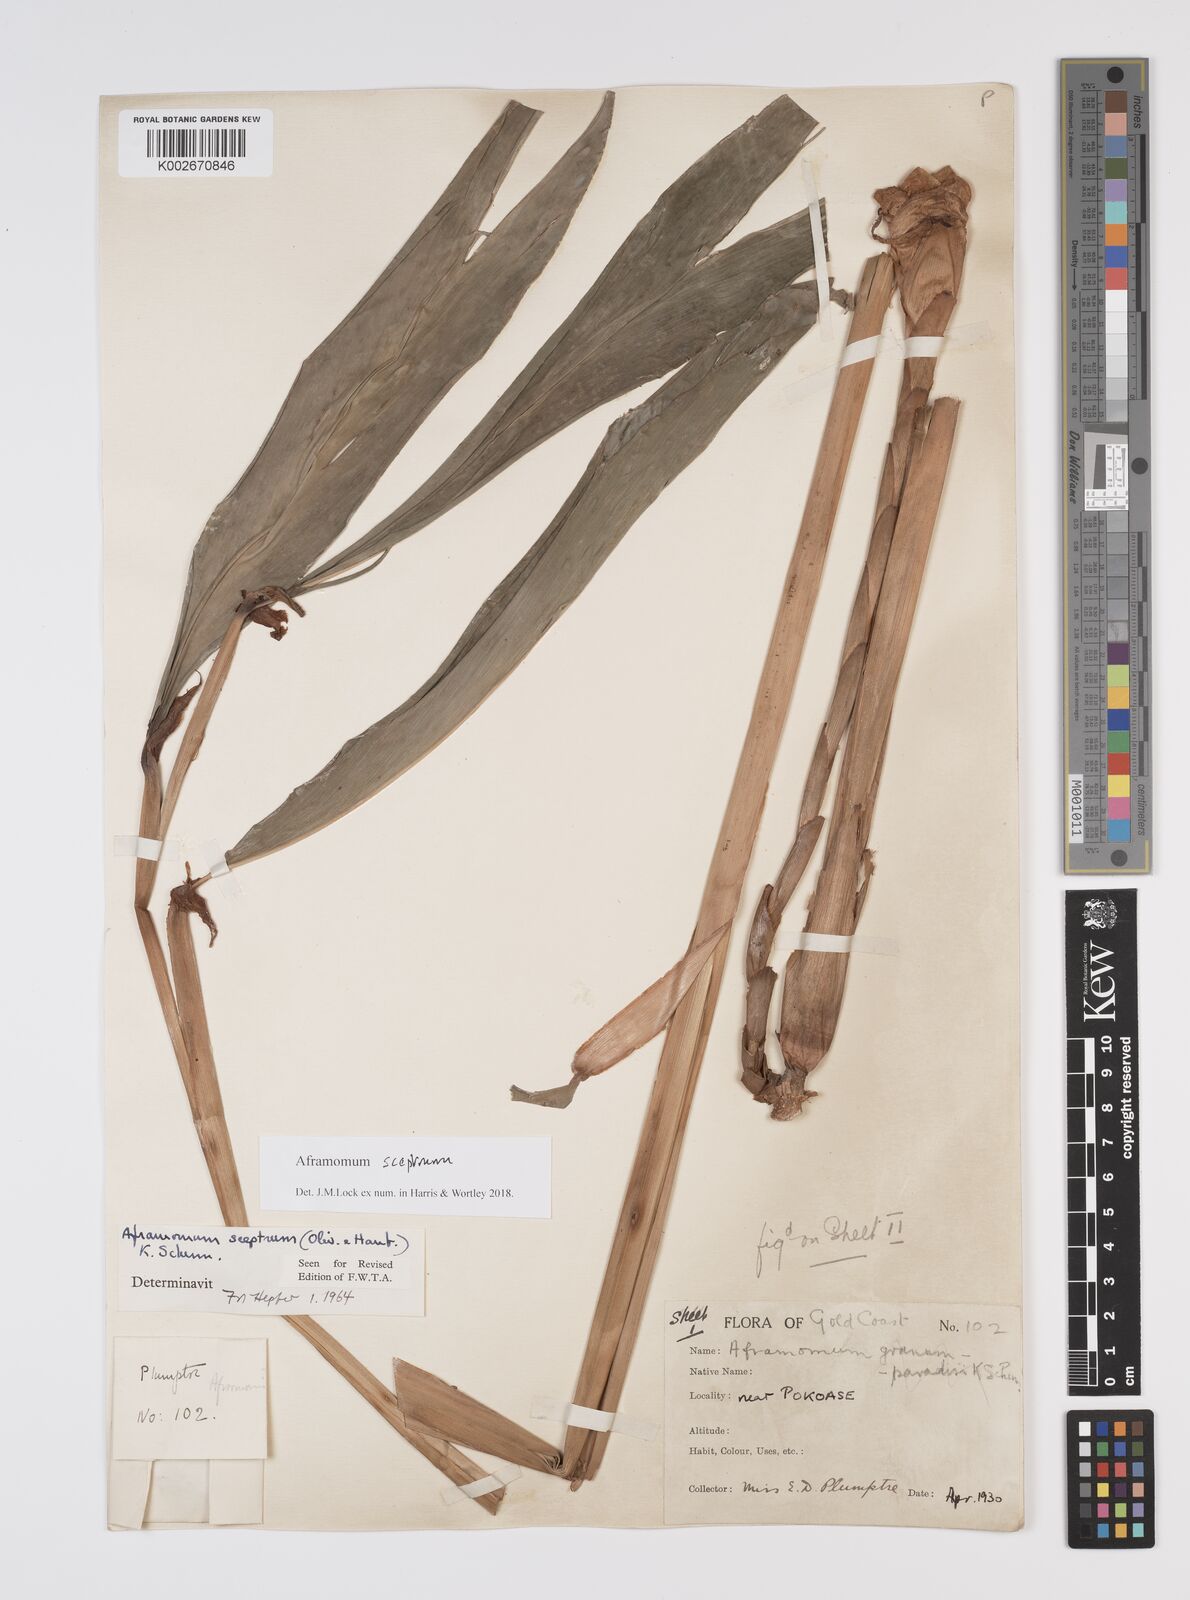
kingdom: Plantae
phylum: Tracheophyta
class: Liliopsida
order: Zingiberales
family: Zingiberaceae
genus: Aframomum
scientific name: Aframomum cereum
